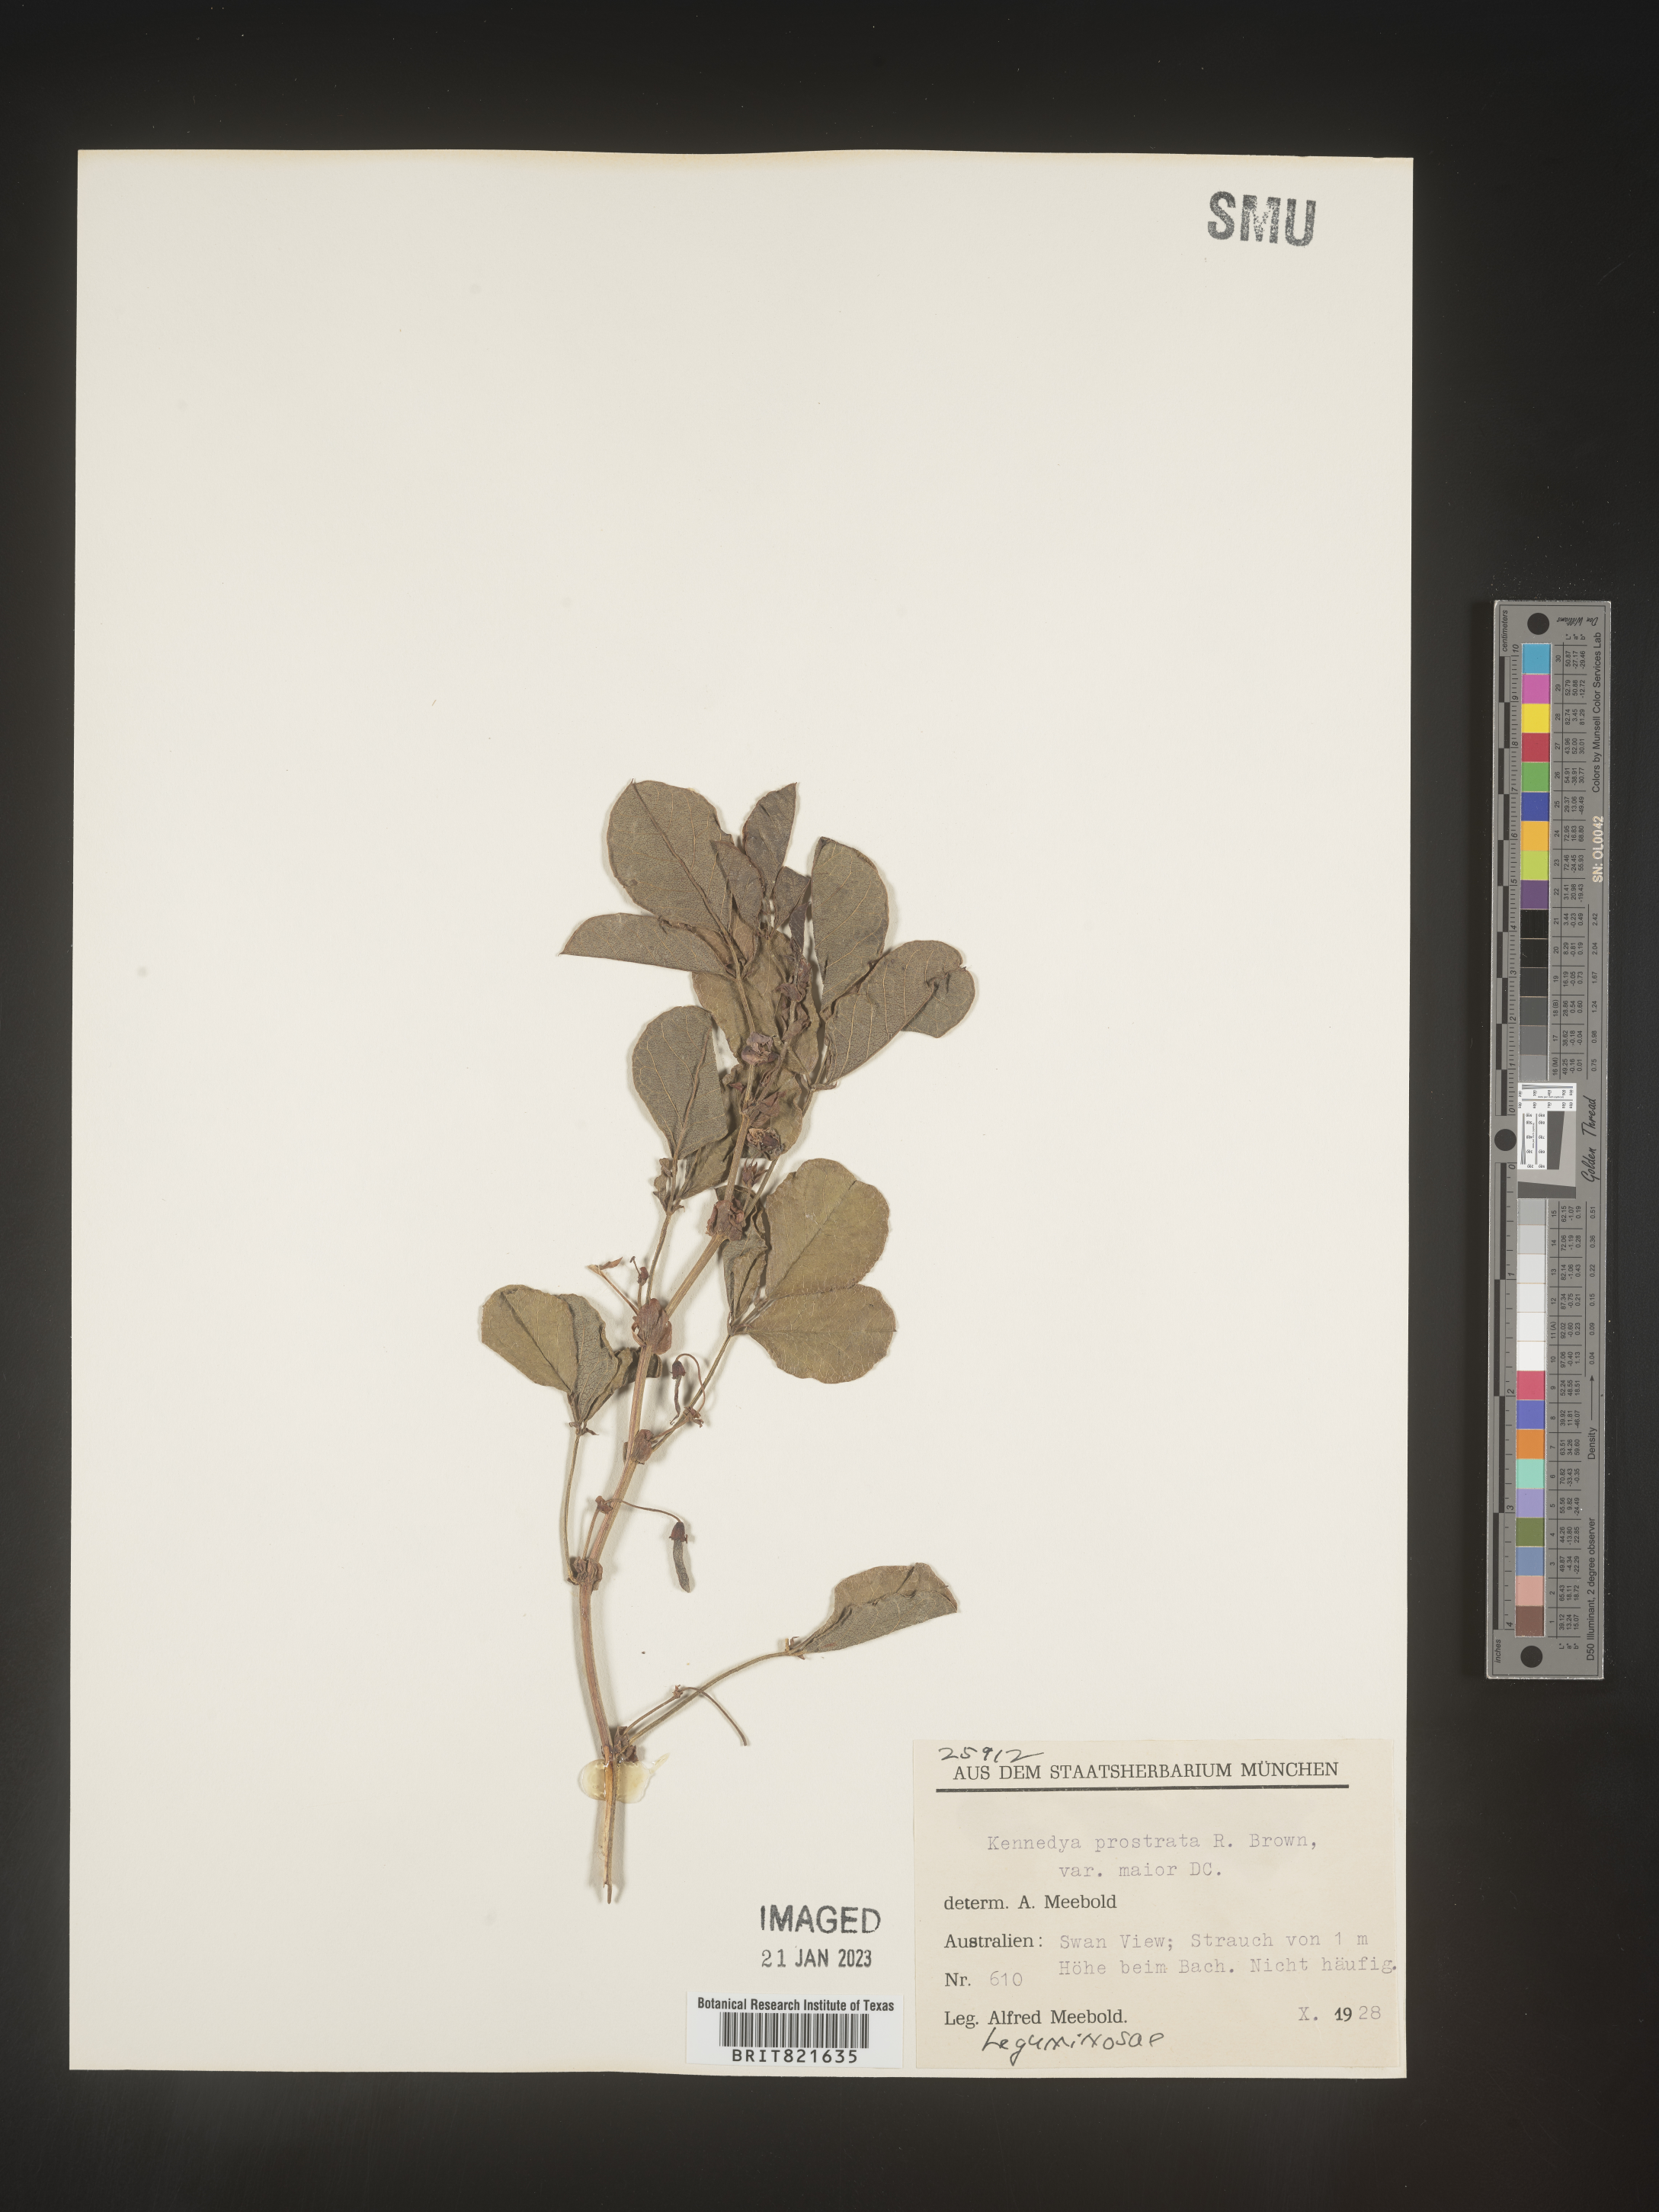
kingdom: Plantae
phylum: Tracheophyta
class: Magnoliopsida
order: Fabales
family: Fabaceae
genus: Kennedya
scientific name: Kennedya
